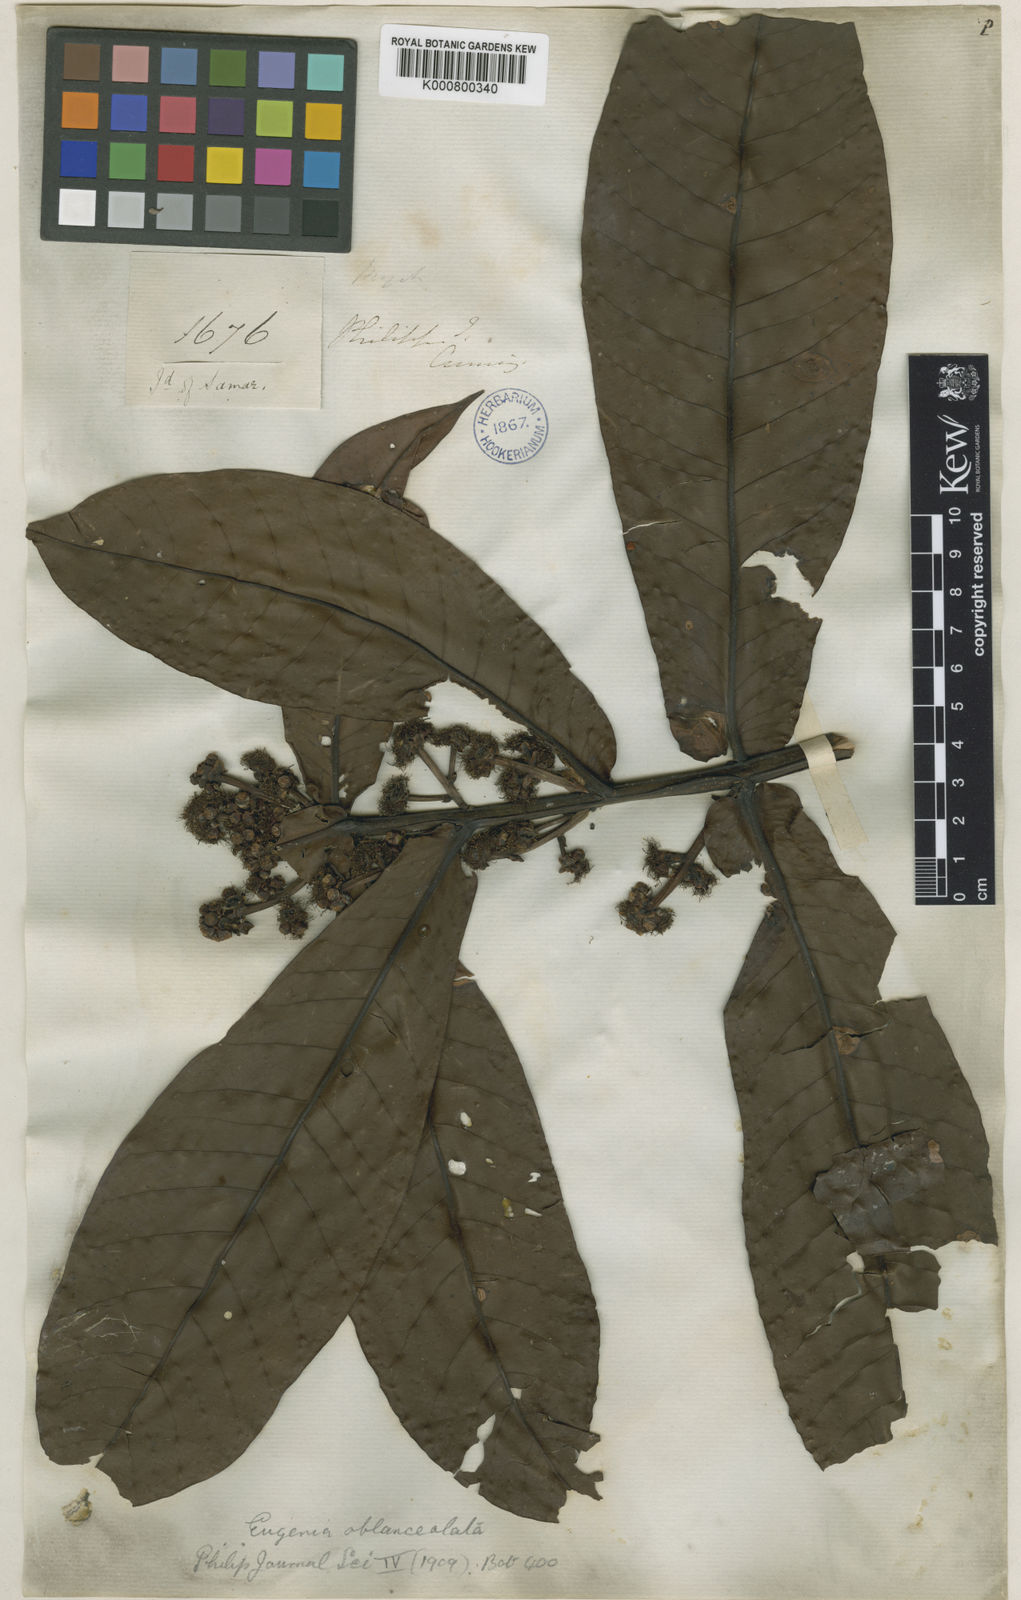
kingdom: Plantae
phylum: Tracheophyta
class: Magnoliopsida
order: Myrtales
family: Myrtaceae
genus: Syzygium
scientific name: Syzygium oblanceolatum
